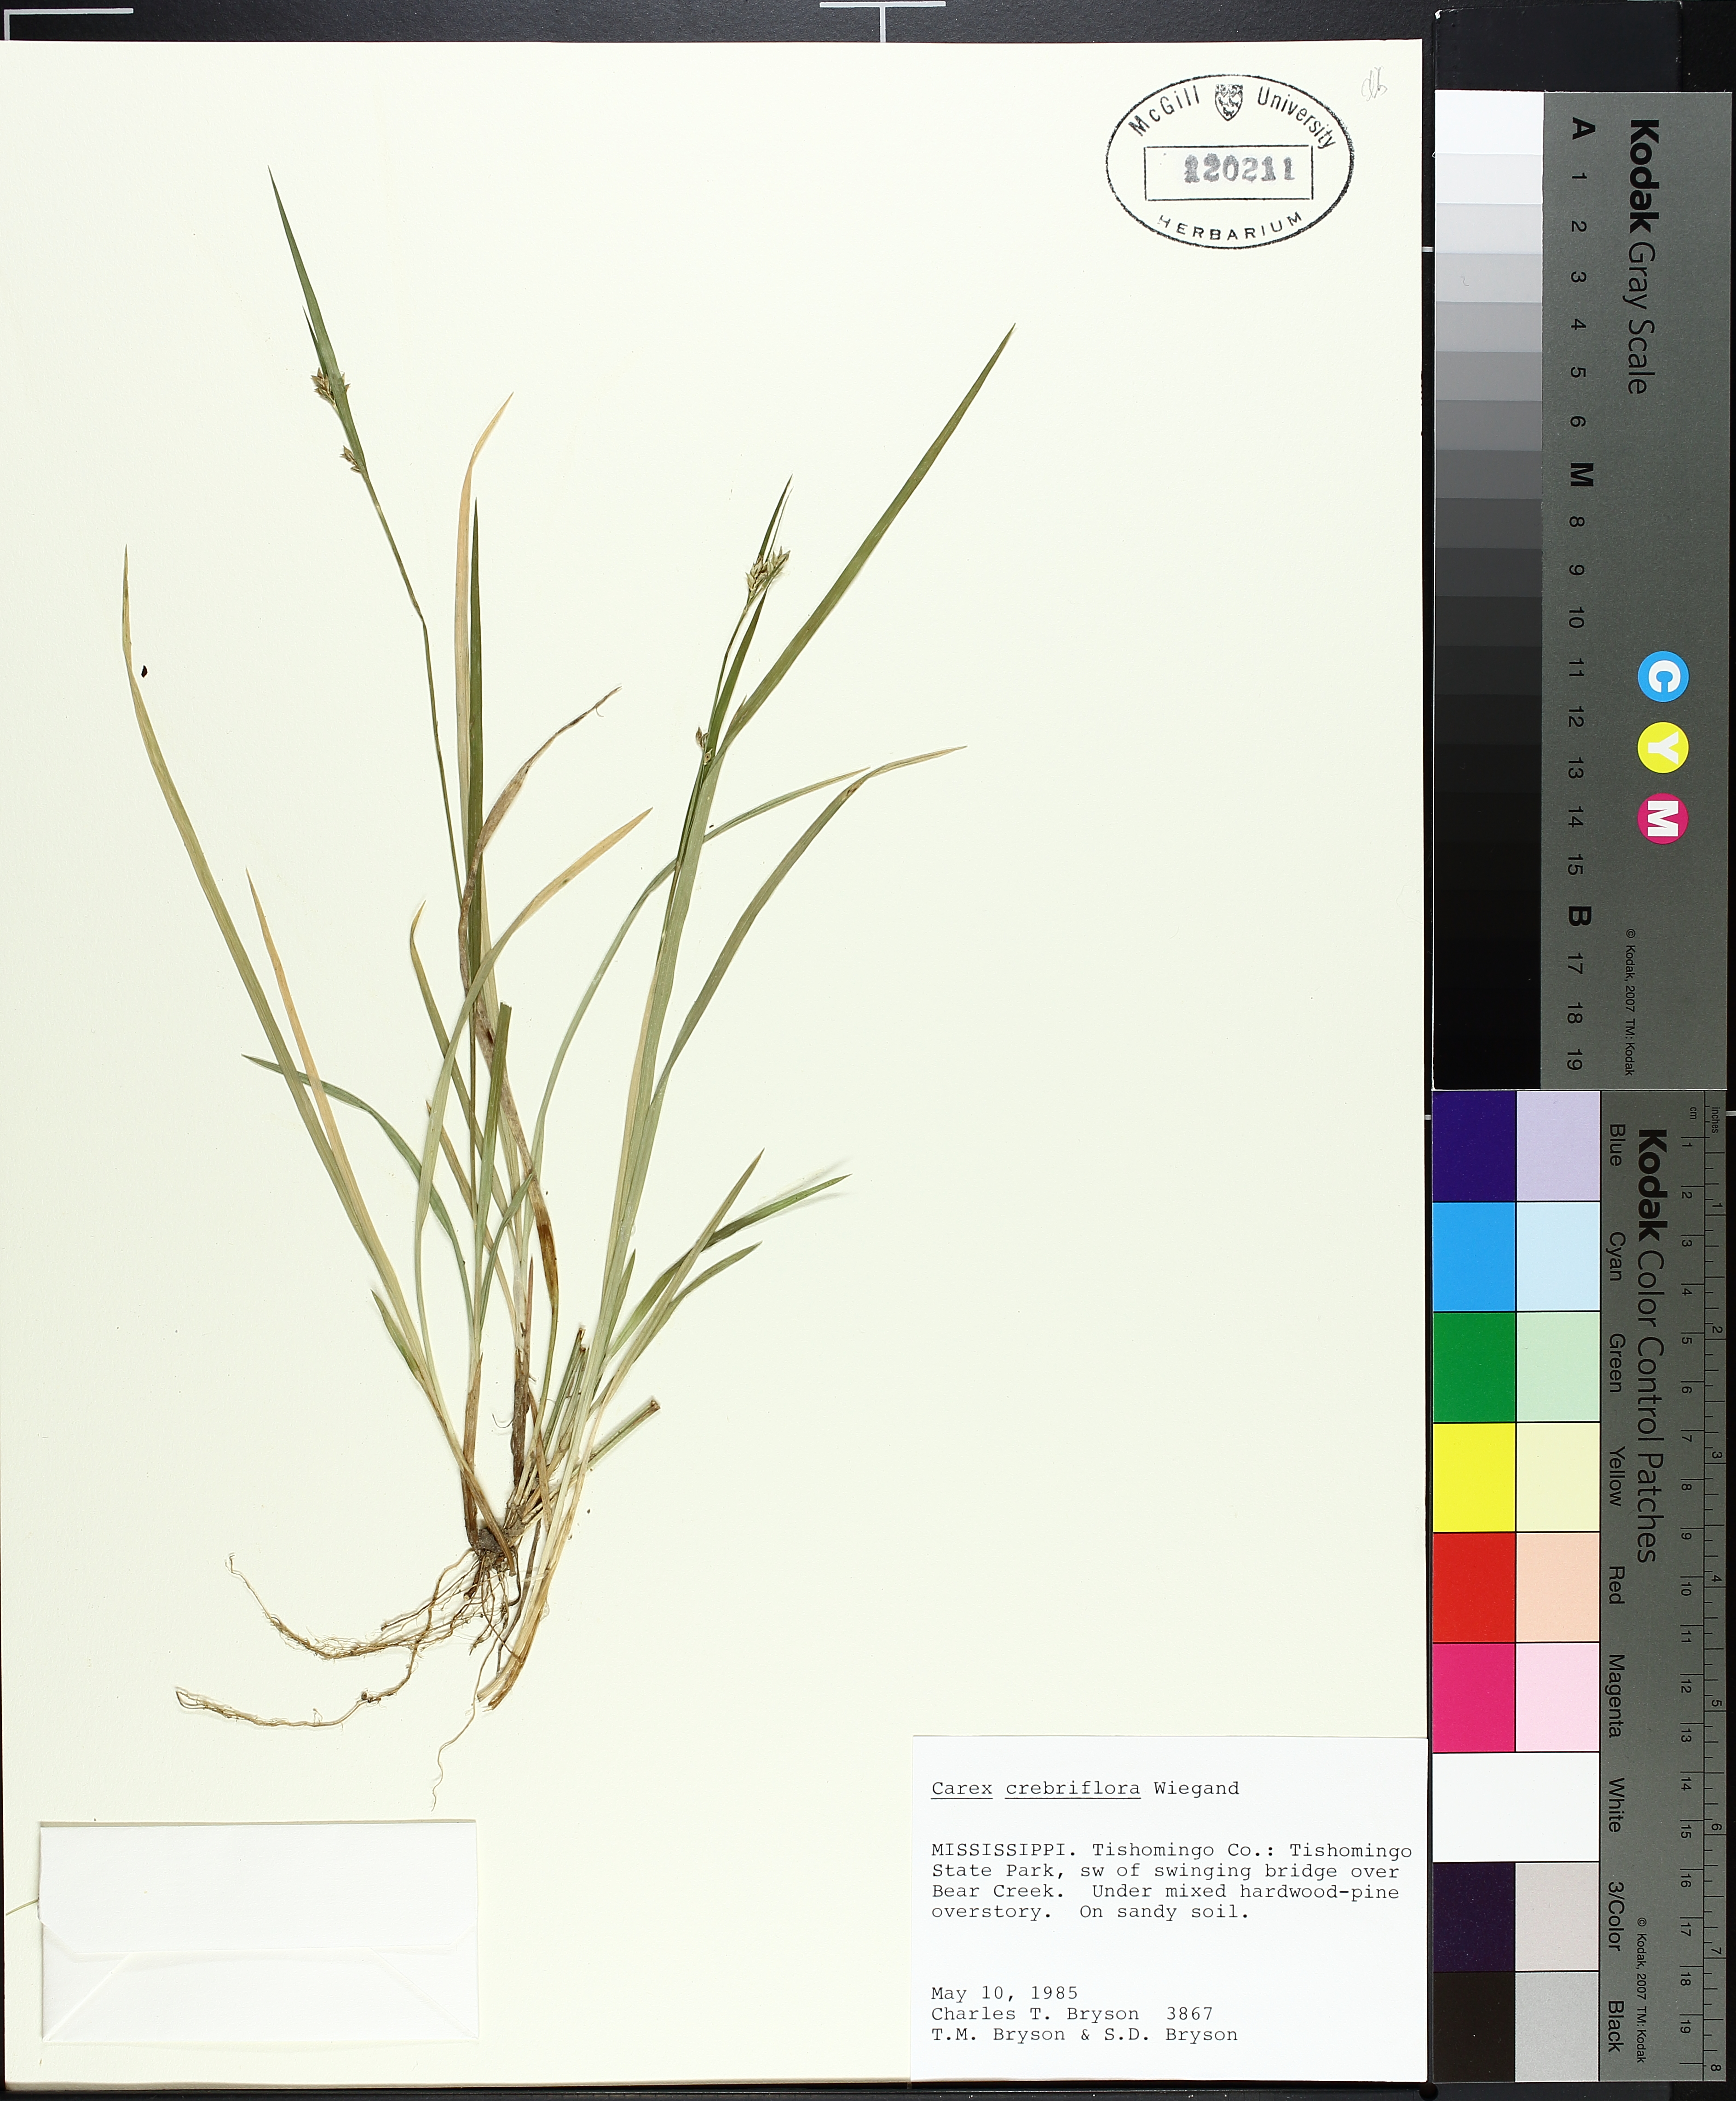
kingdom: Plantae
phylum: Tracheophyta
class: Liliopsida
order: Poales
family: Cyperaceae
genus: Carex
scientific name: Carex crebriflora
